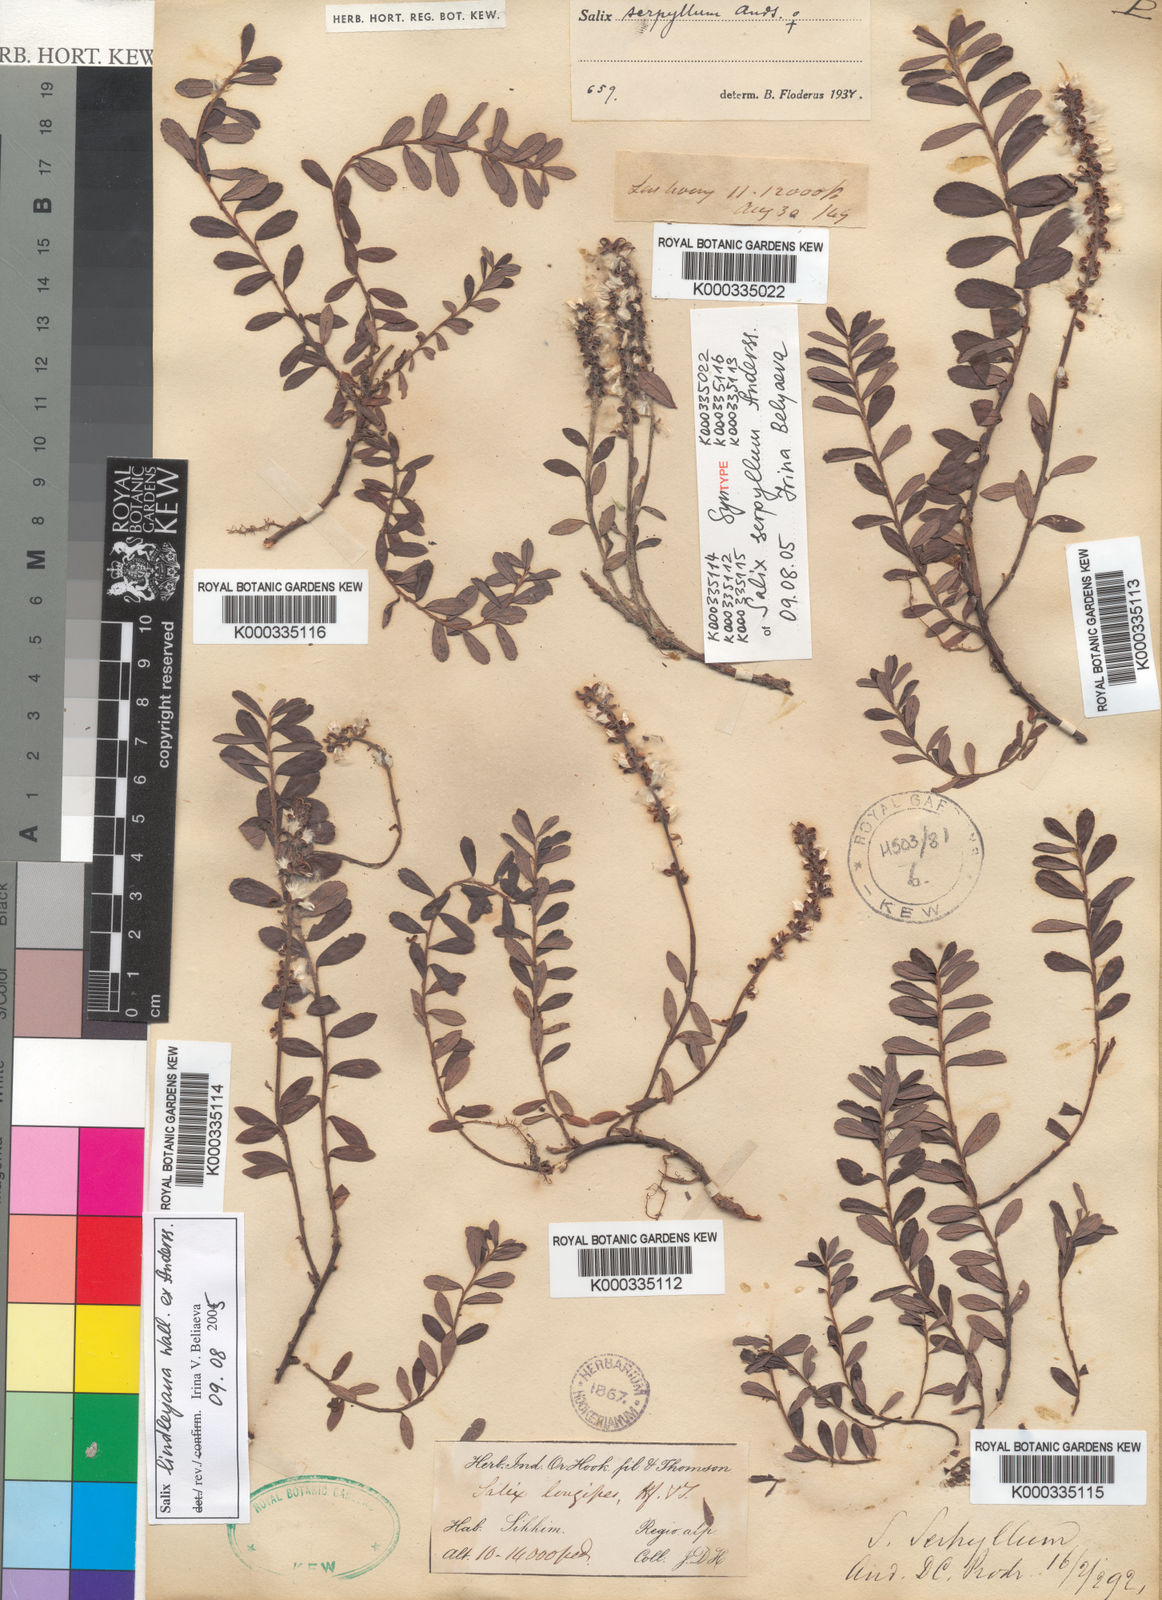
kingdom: Plantae
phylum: Tracheophyta
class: Magnoliopsida
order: Malpighiales
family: Salicaceae
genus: Salix
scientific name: Salix fruticulosa
